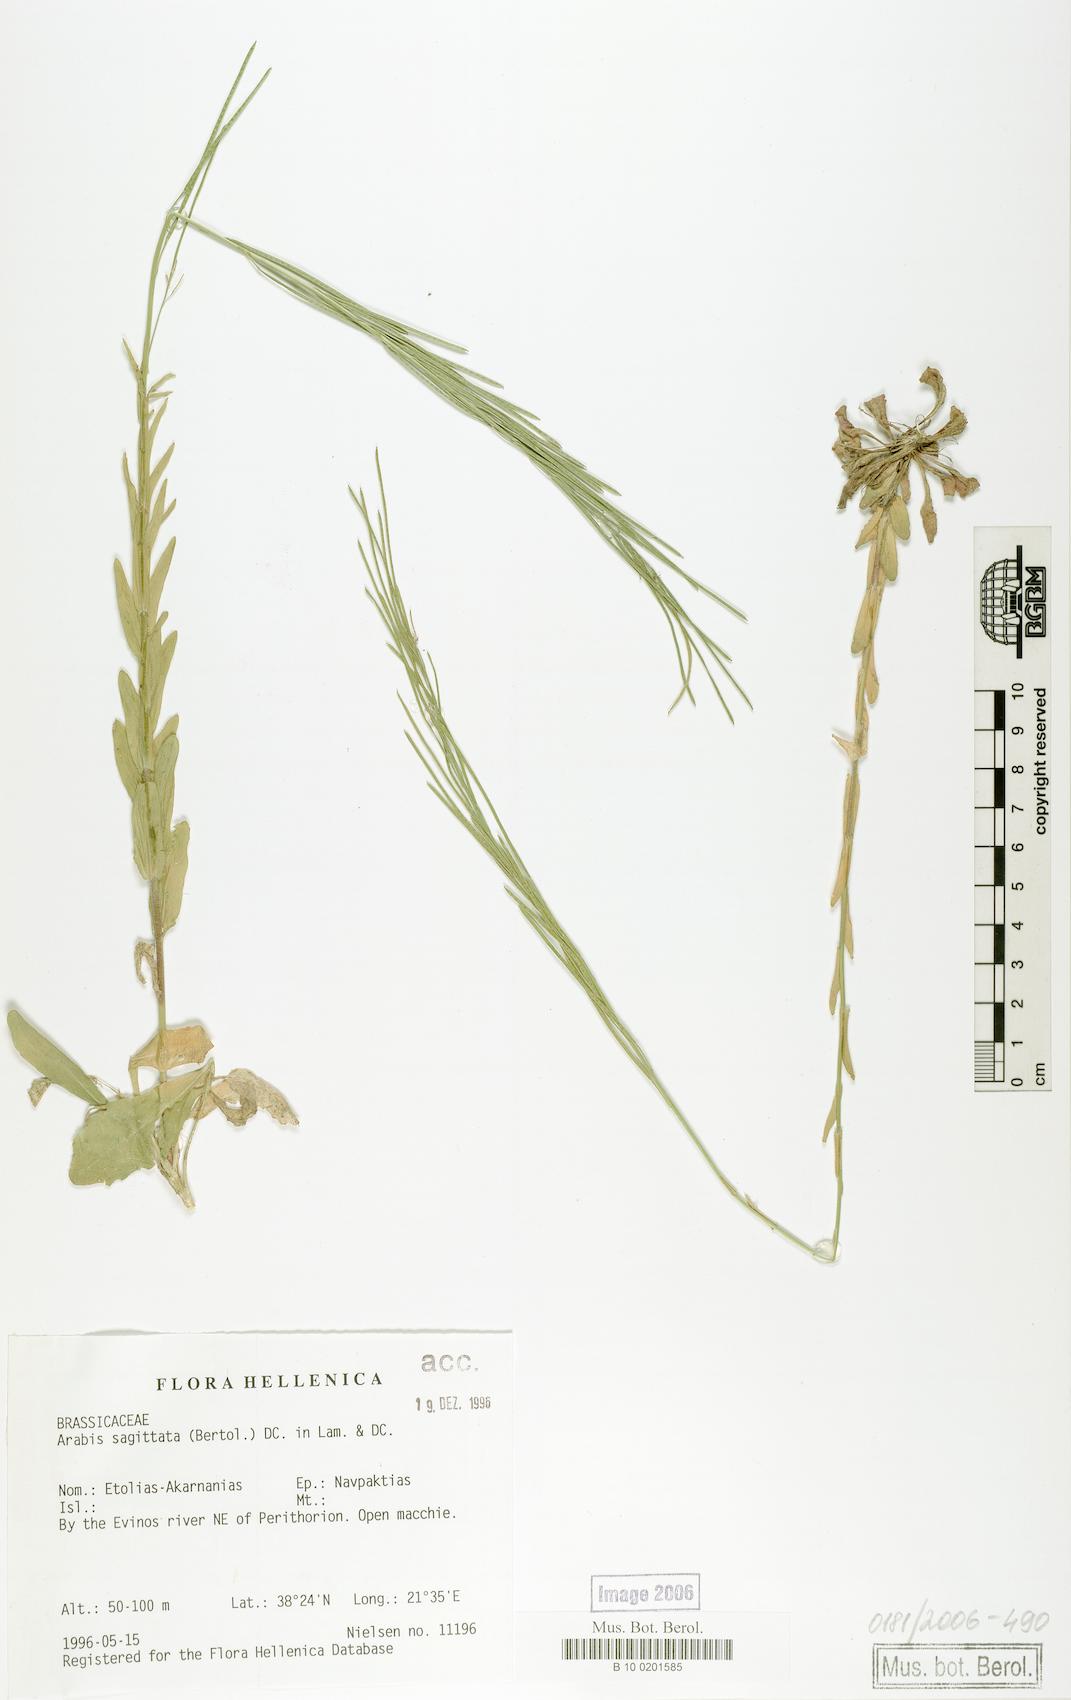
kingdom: Plantae
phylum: Tracheophyta
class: Magnoliopsida
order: Brassicales
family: Brassicaceae
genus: Arabis
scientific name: Arabis sagittata
